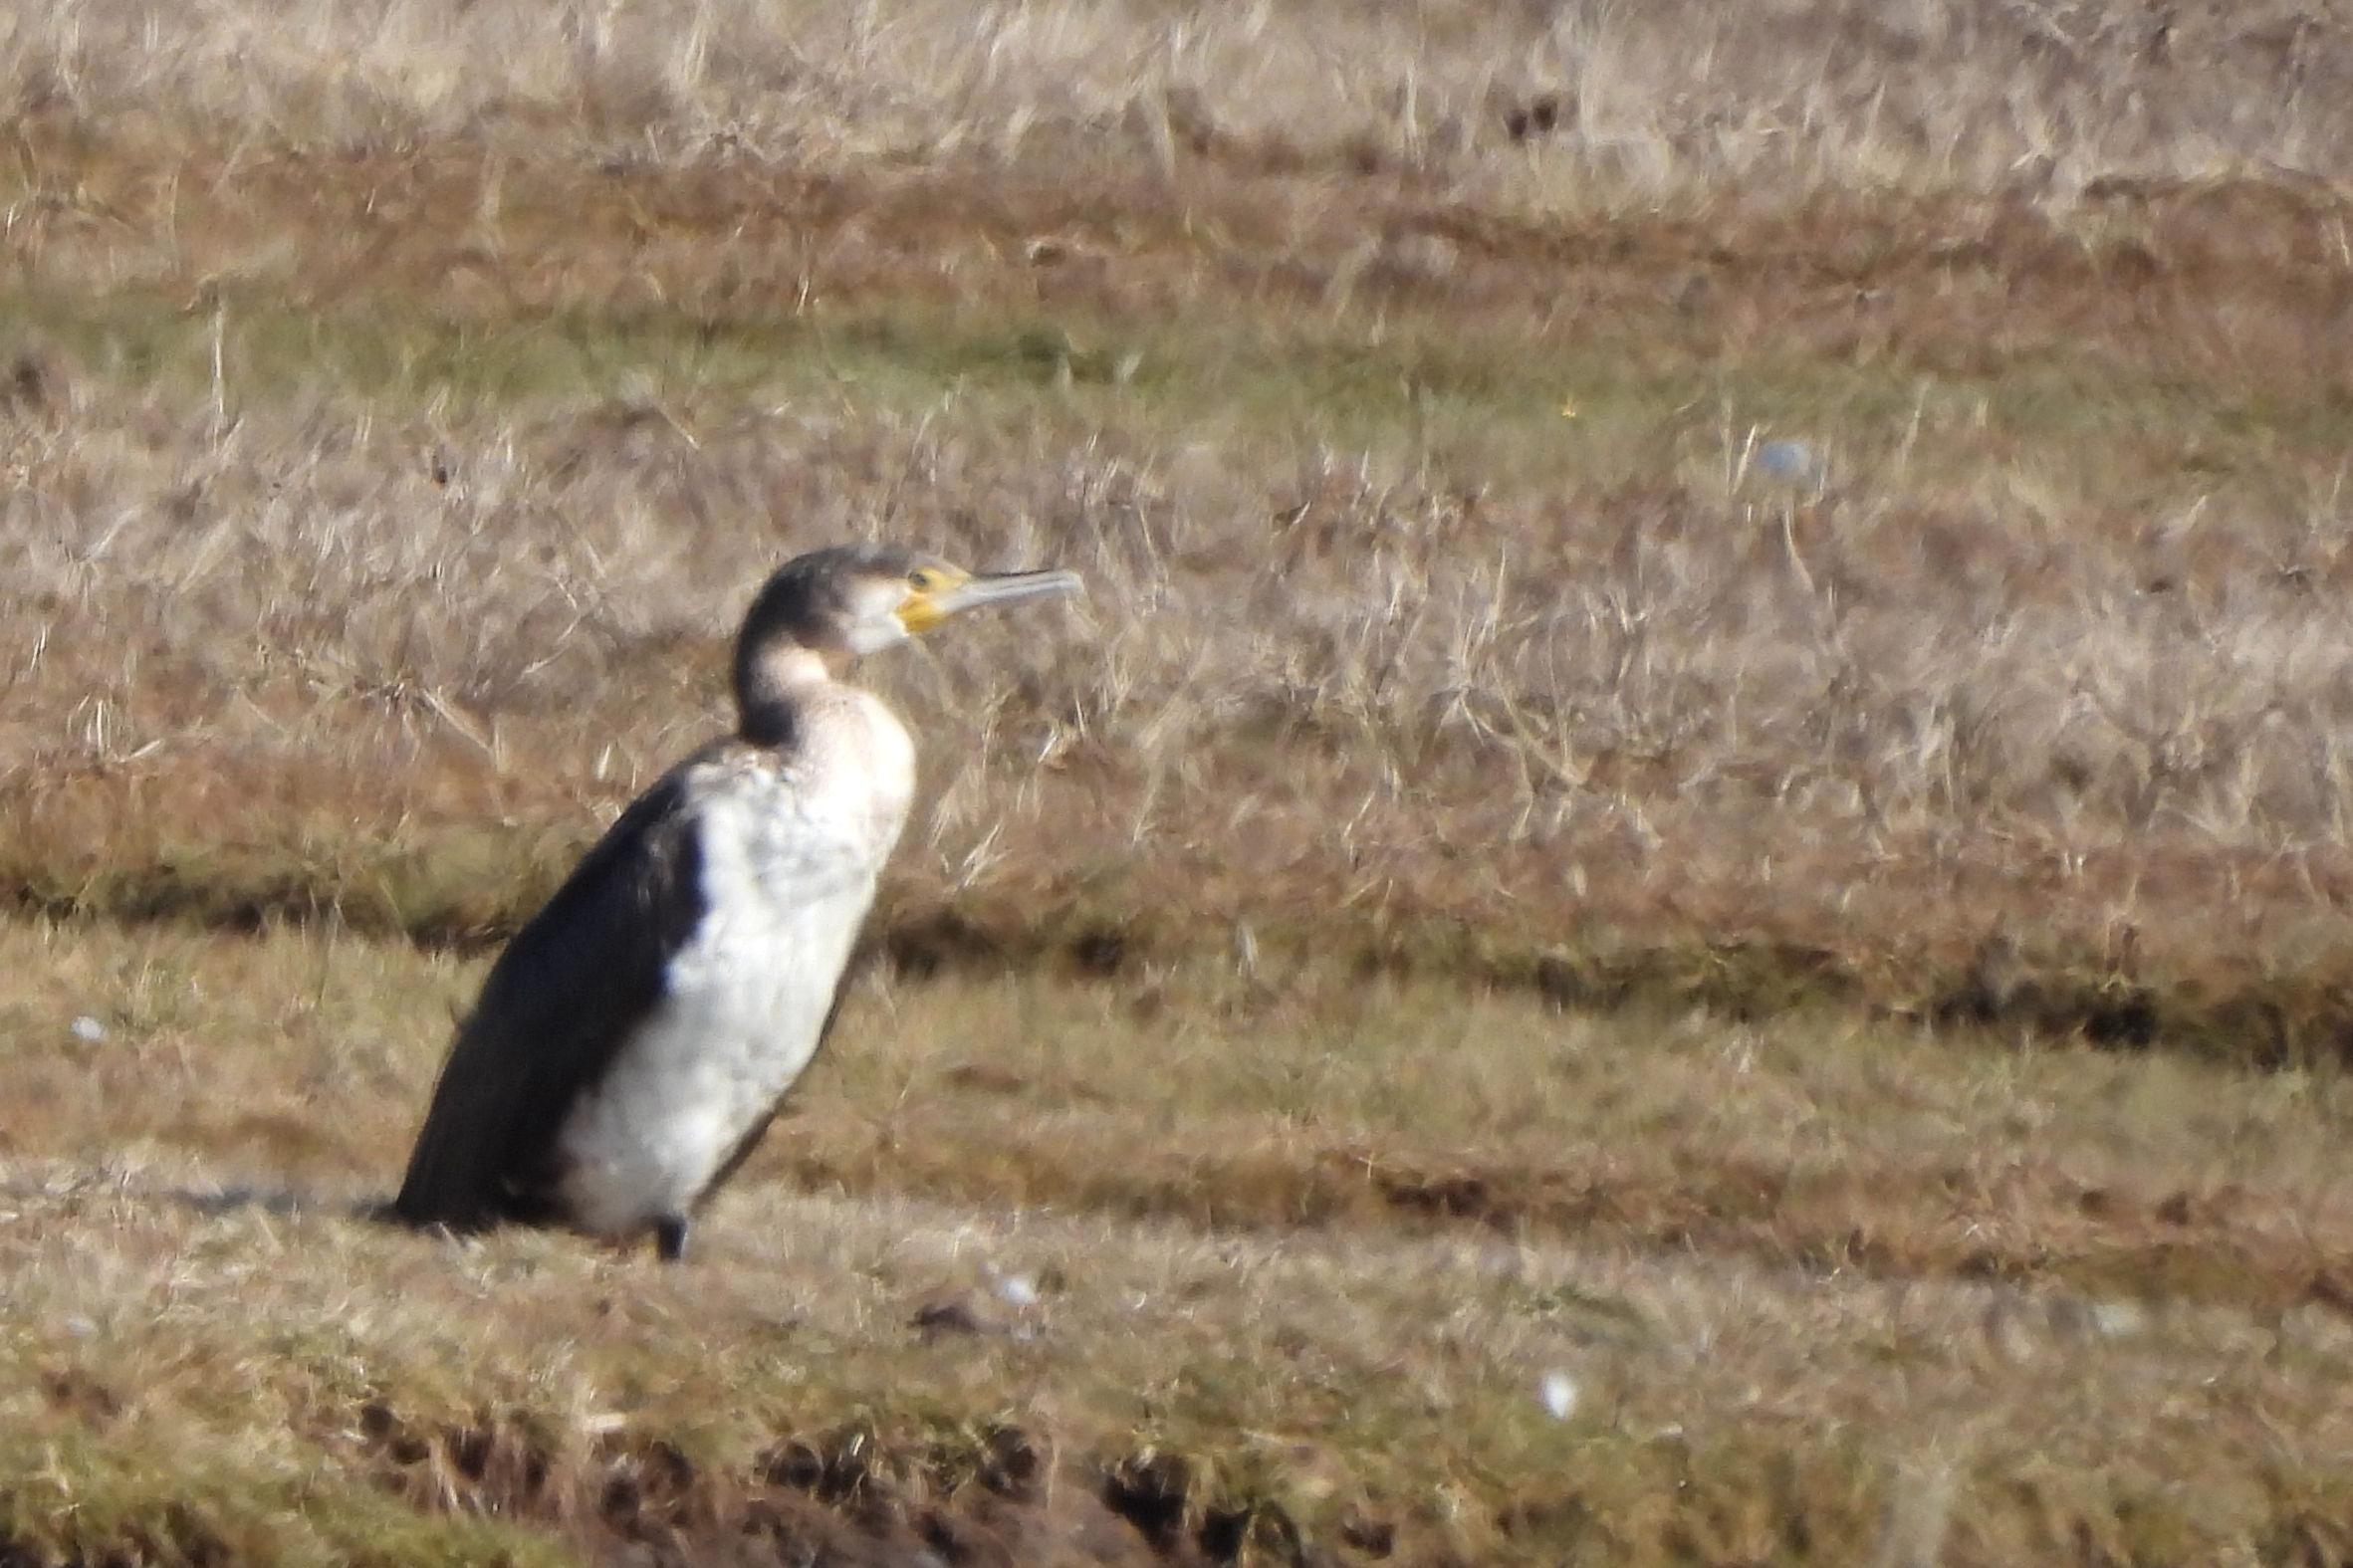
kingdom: Animalia
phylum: Chordata
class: Aves
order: Suliformes
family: Phalacrocoracidae
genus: Phalacrocorax
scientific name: Phalacrocorax carbo
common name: Skarv
